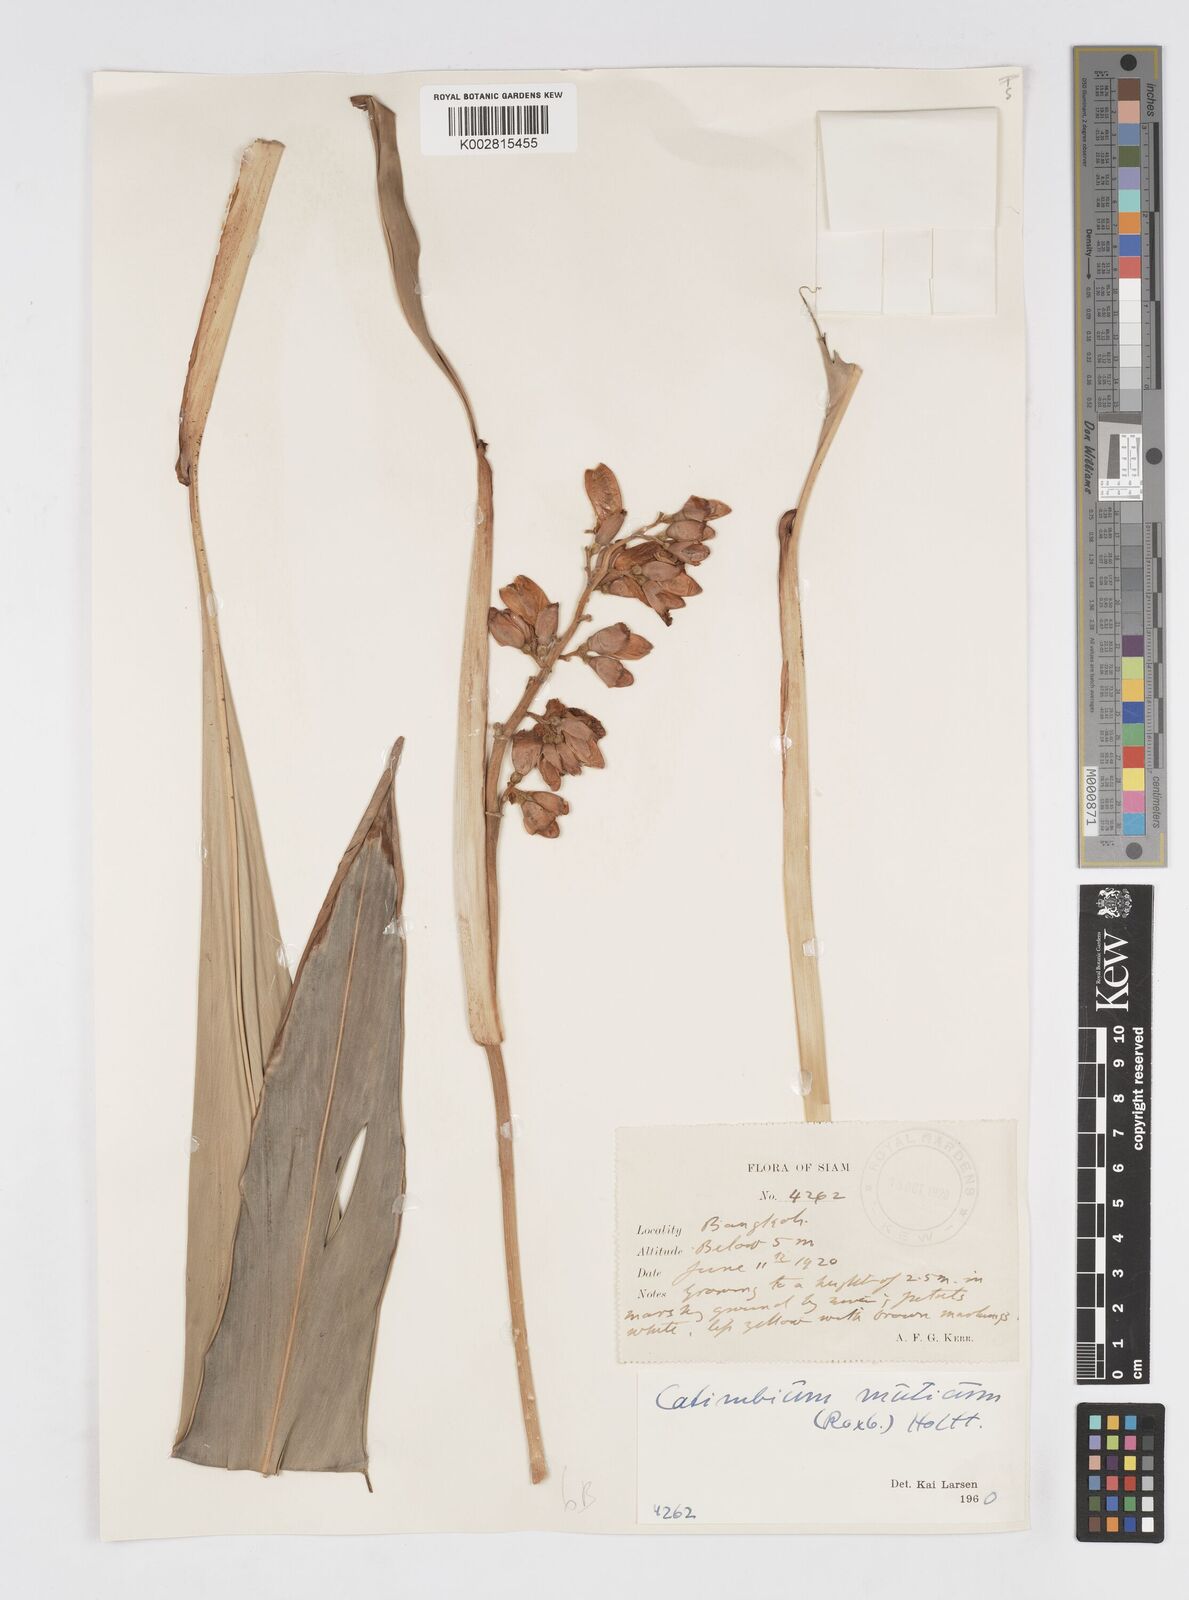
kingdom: Plantae
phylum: Tracheophyta
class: Liliopsida
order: Zingiberales
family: Zingiberaceae
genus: Alpinia
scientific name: Alpinia mutica
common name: Small shell ginger
